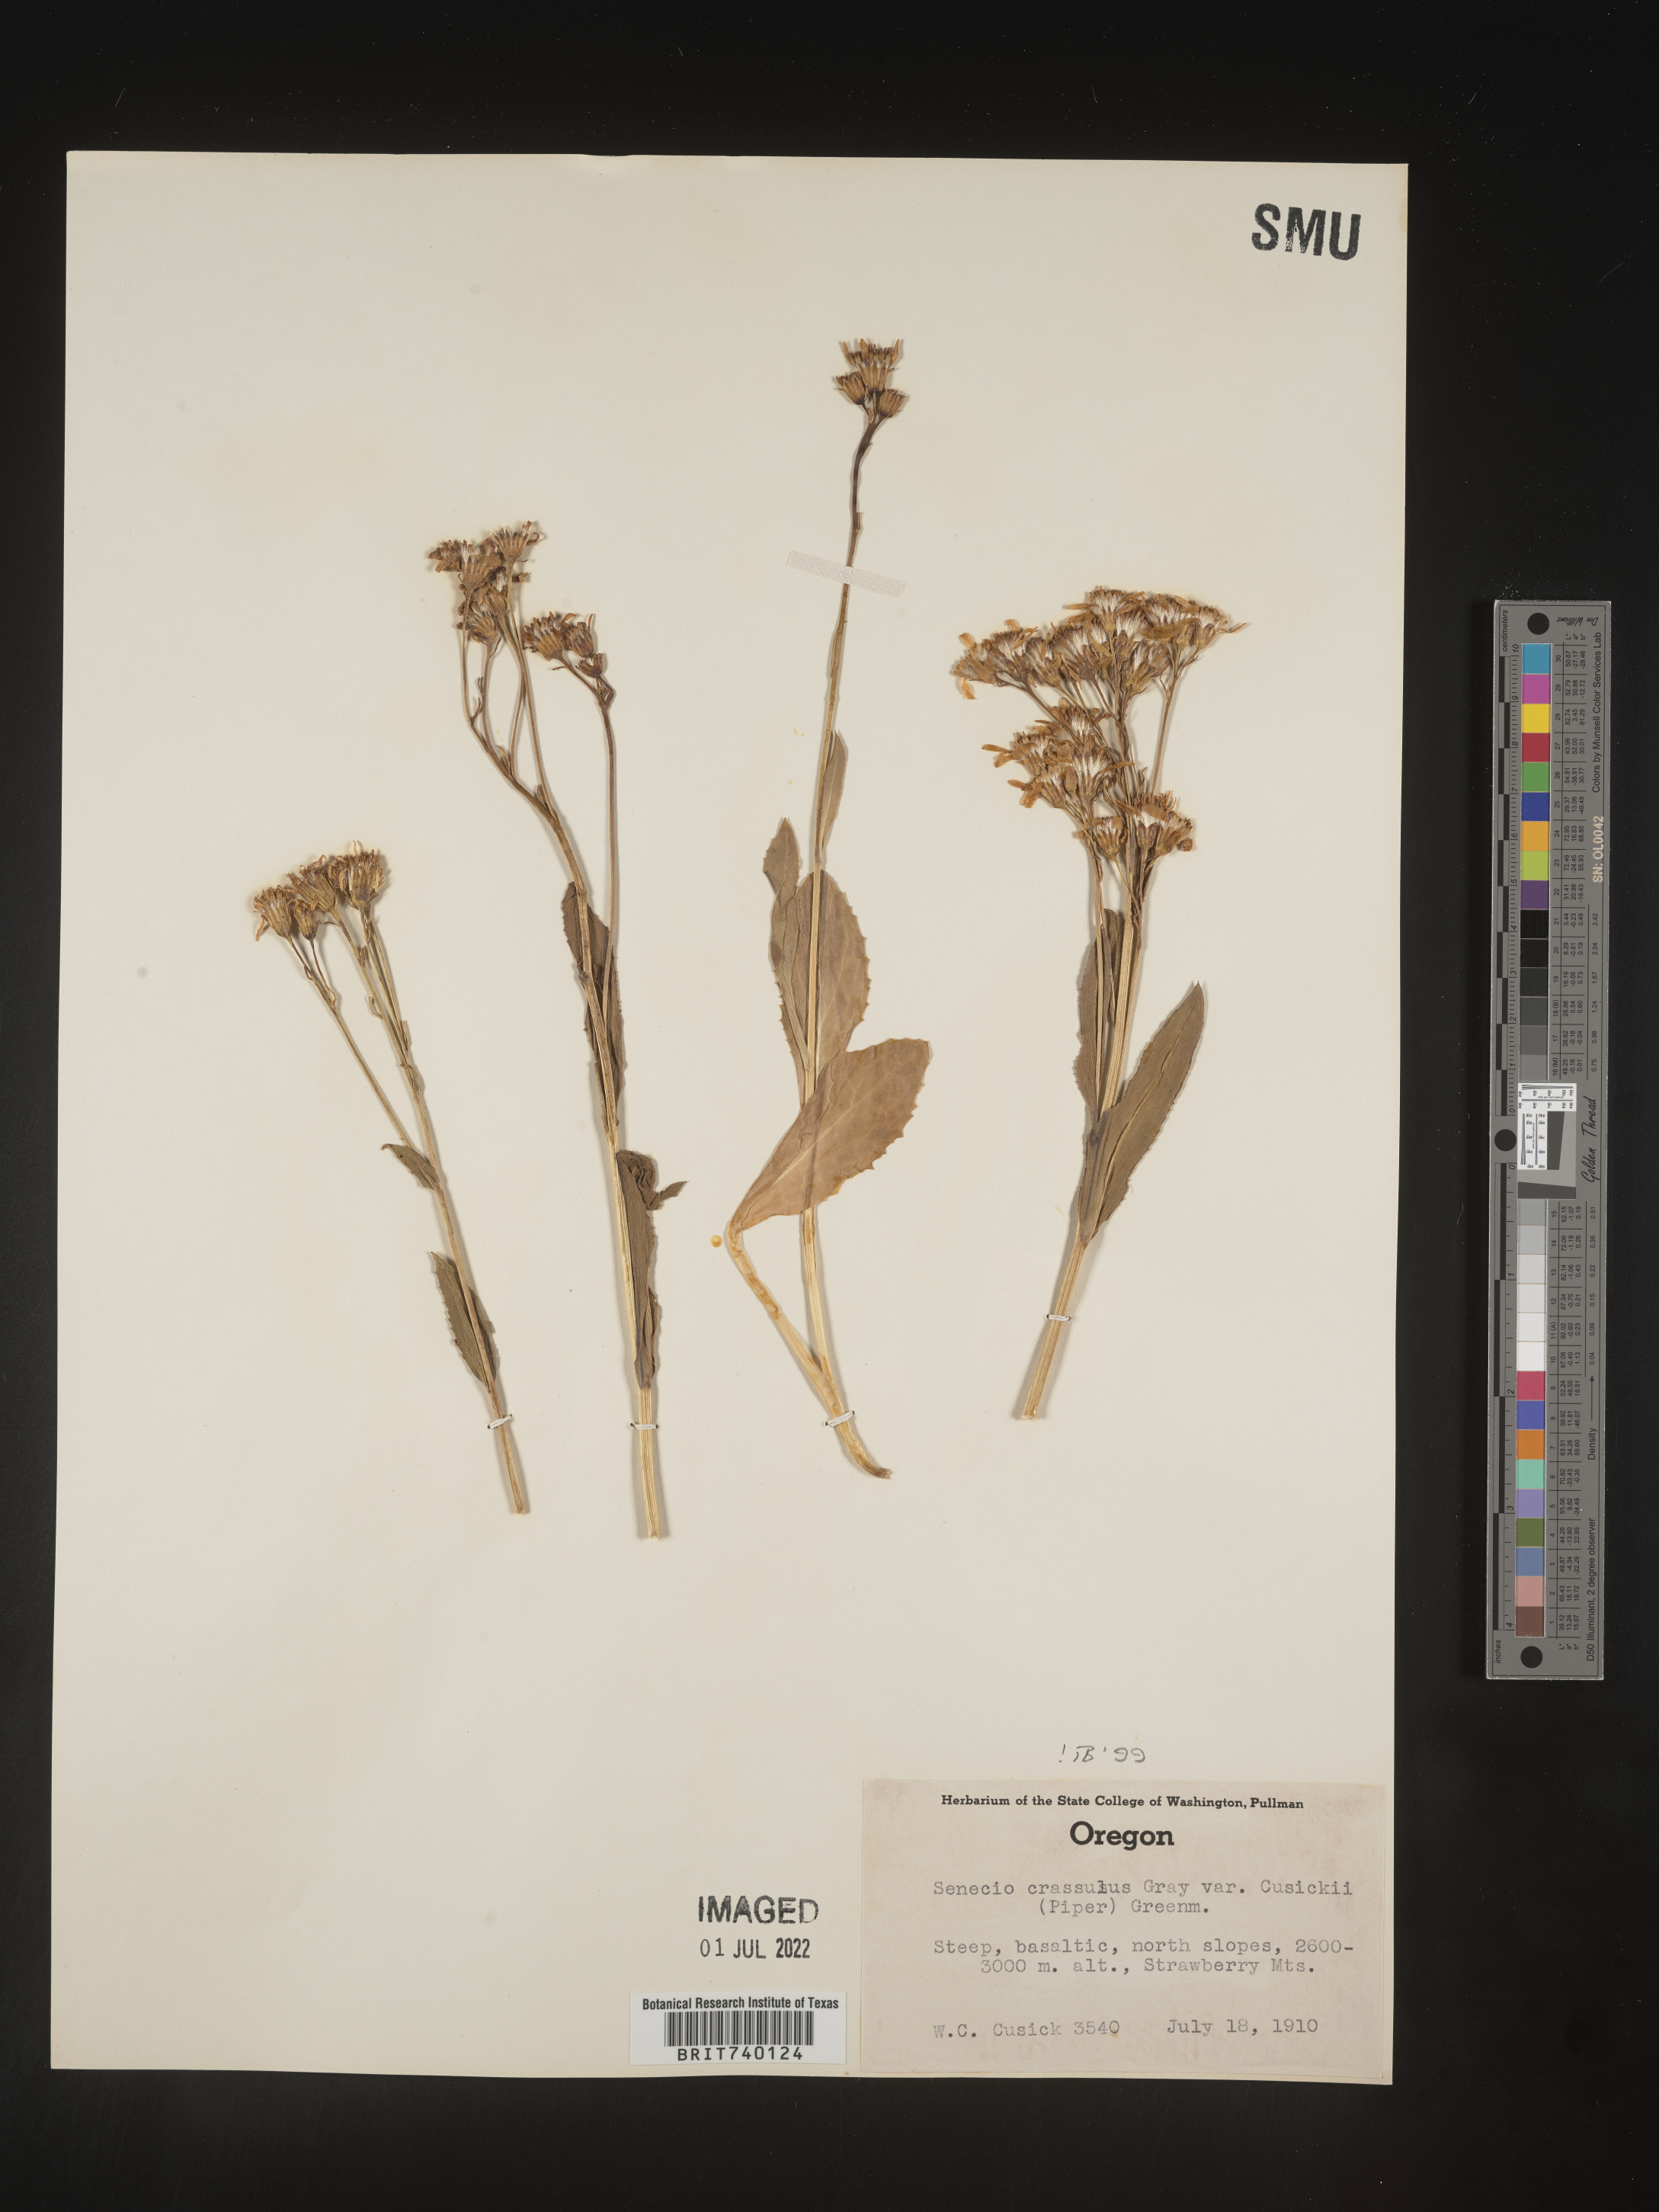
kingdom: Plantae
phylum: Tracheophyta
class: Magnoliopsida
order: Asterales
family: Asteraceae
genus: Senecio
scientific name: Senecio crassulus
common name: Mountain-meadow butterweed
